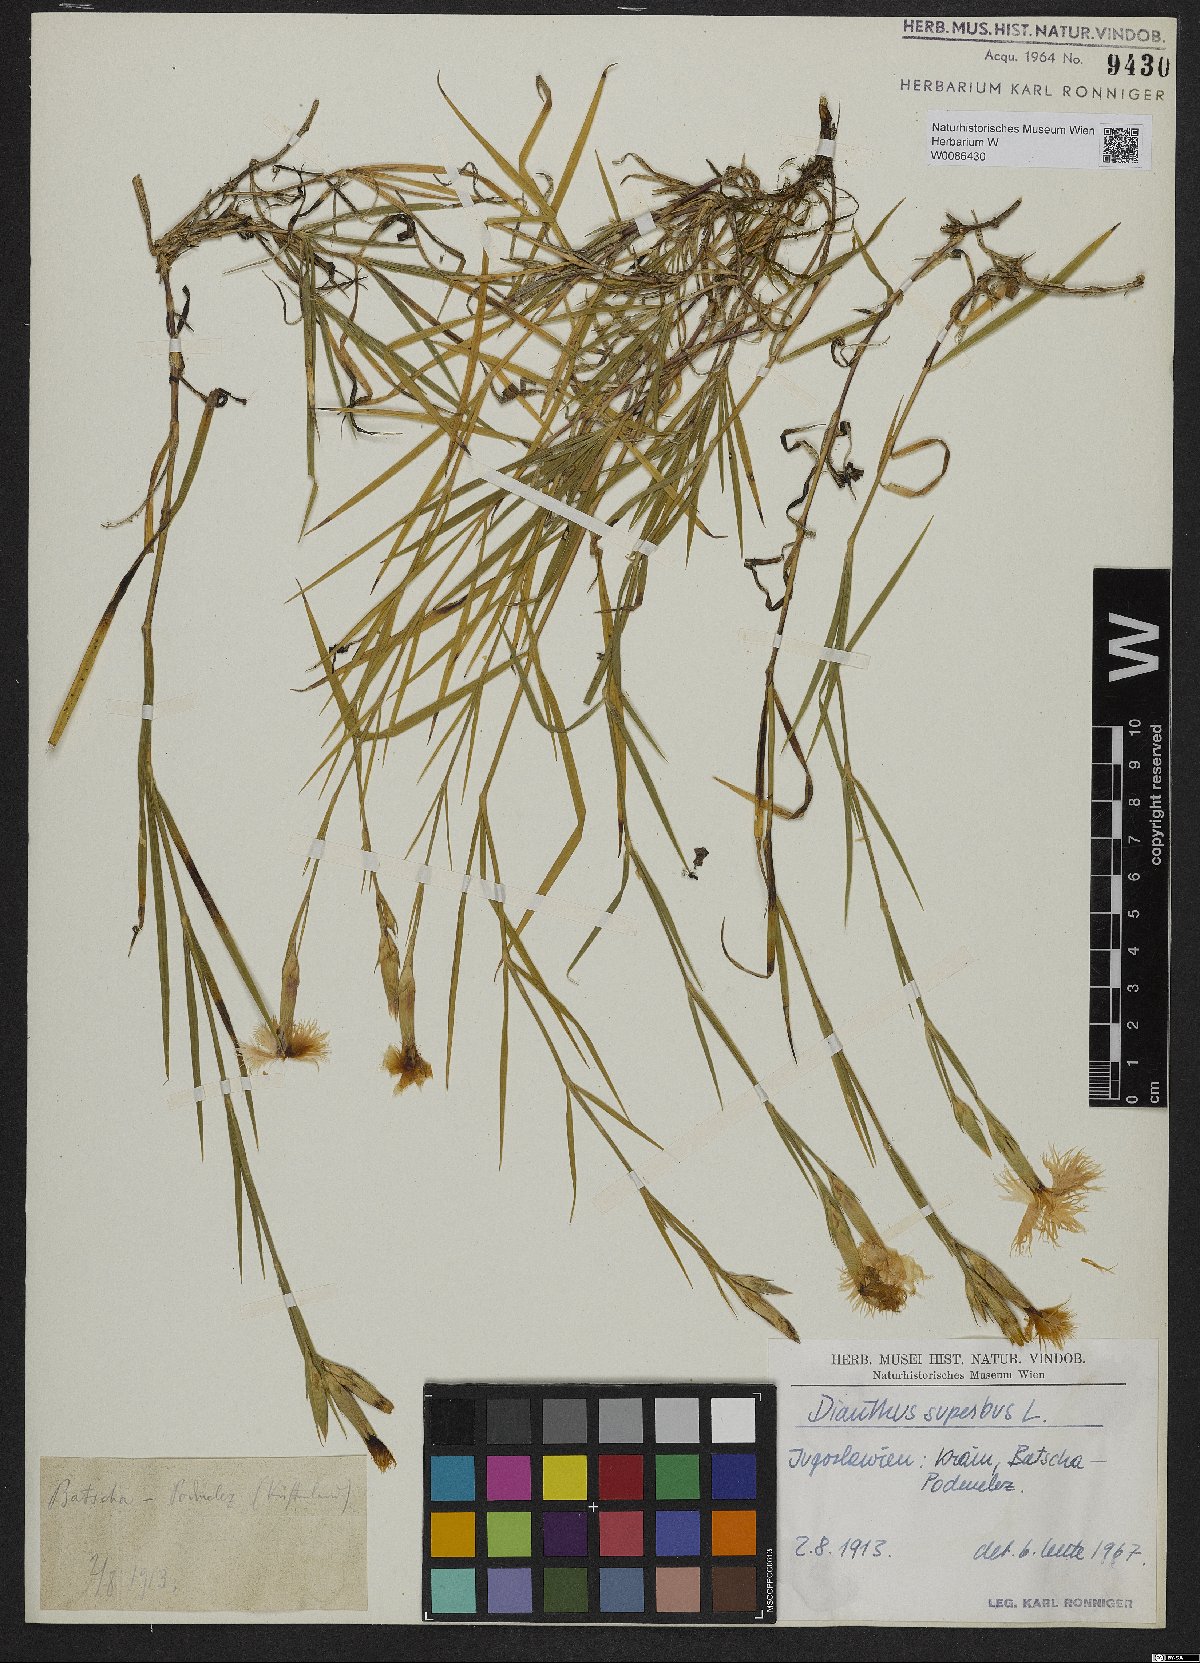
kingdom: Plantae
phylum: Tracheophyta
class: Magnoliopsida
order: Caryophyllales
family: Caryophyllaceae
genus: Dianthus
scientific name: Dianthus superbus
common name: Fringed pink
